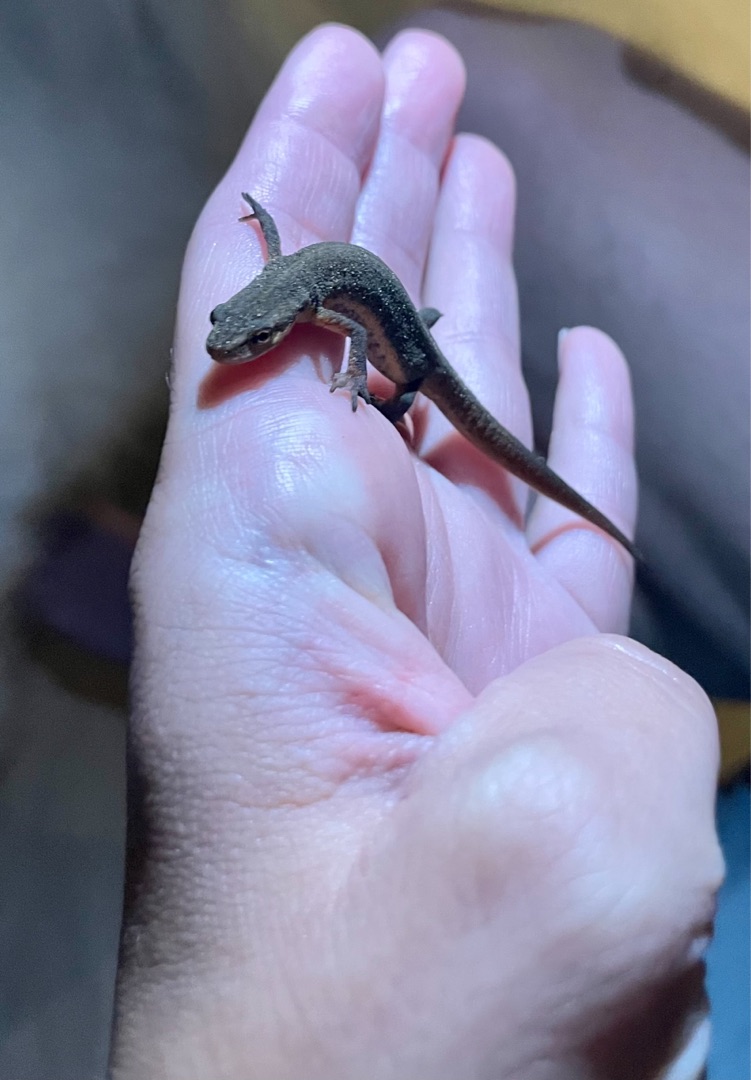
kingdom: Animalia
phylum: Chordata
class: Amphibia
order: Caudata
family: Salamandridae
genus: Lissotriton
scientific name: Lissotriton vulgaris
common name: Lille vandsalamander
